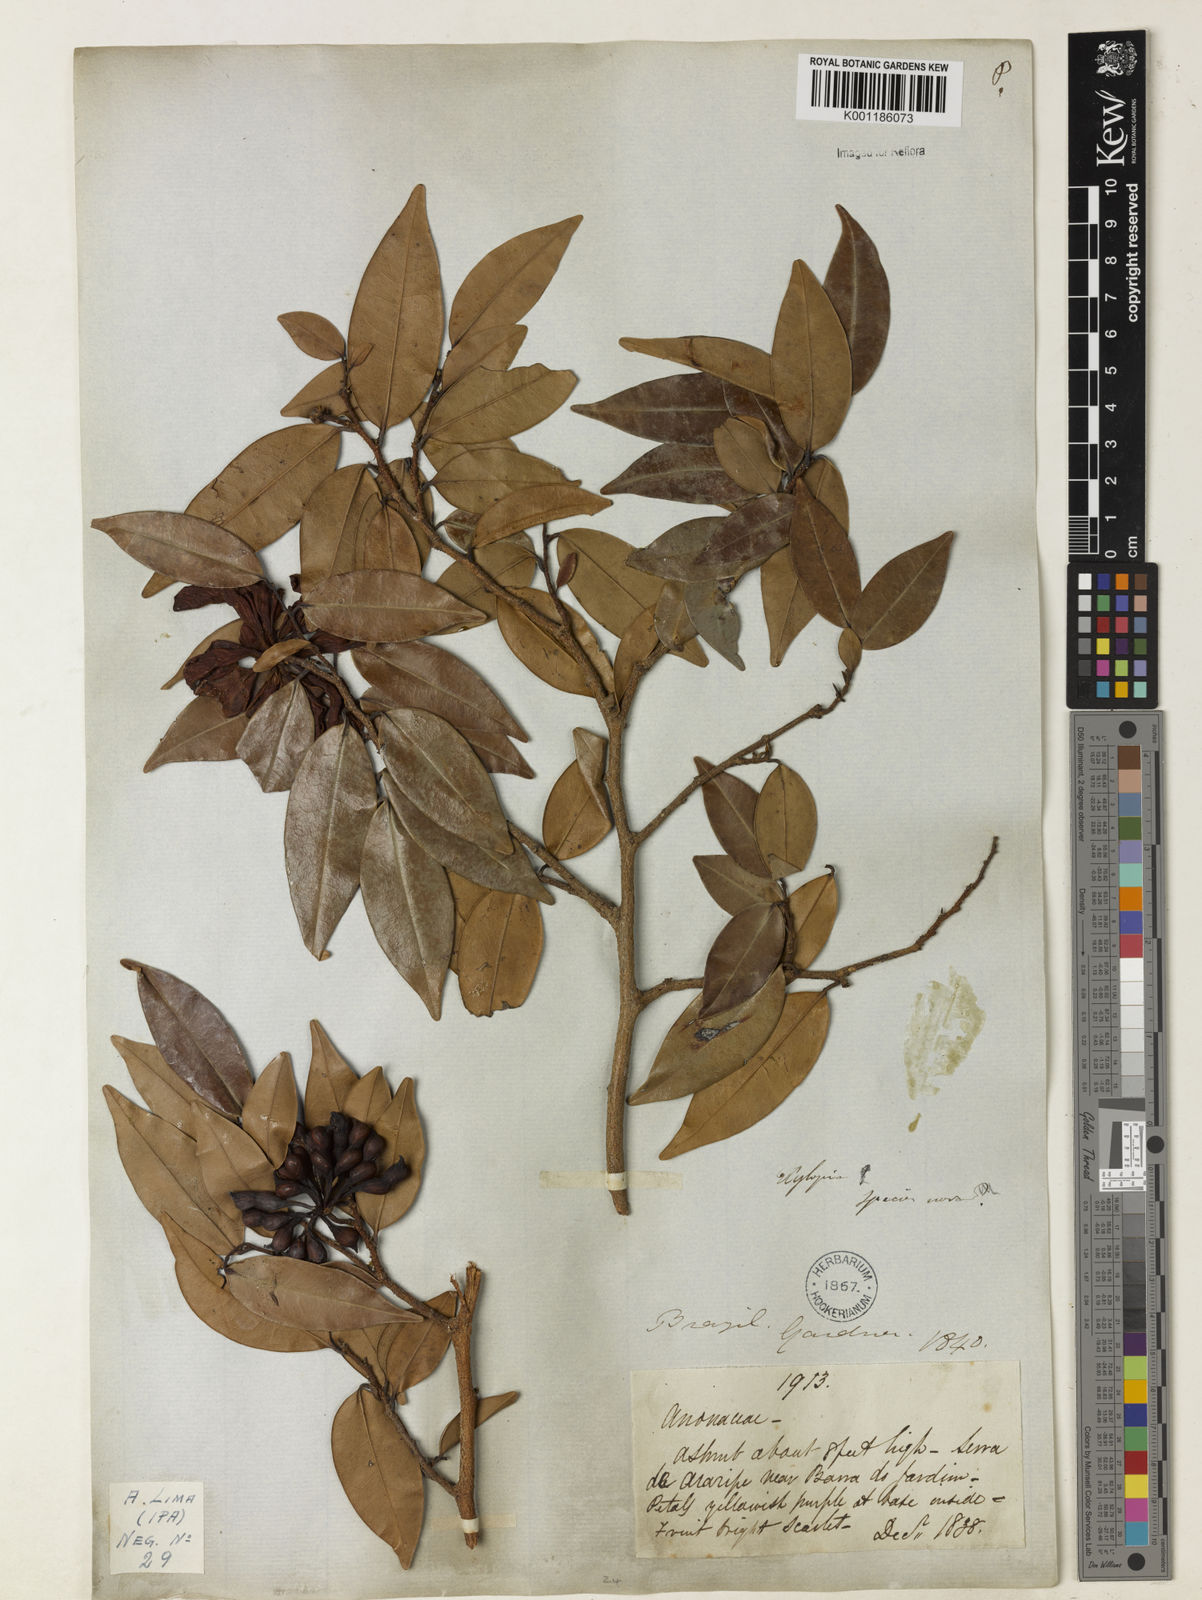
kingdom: Plantae
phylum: Tracheophyta
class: Magnoliopsida
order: Magnoliales
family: Annonaceae
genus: Xylopia
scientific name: Xylopia laevigata
